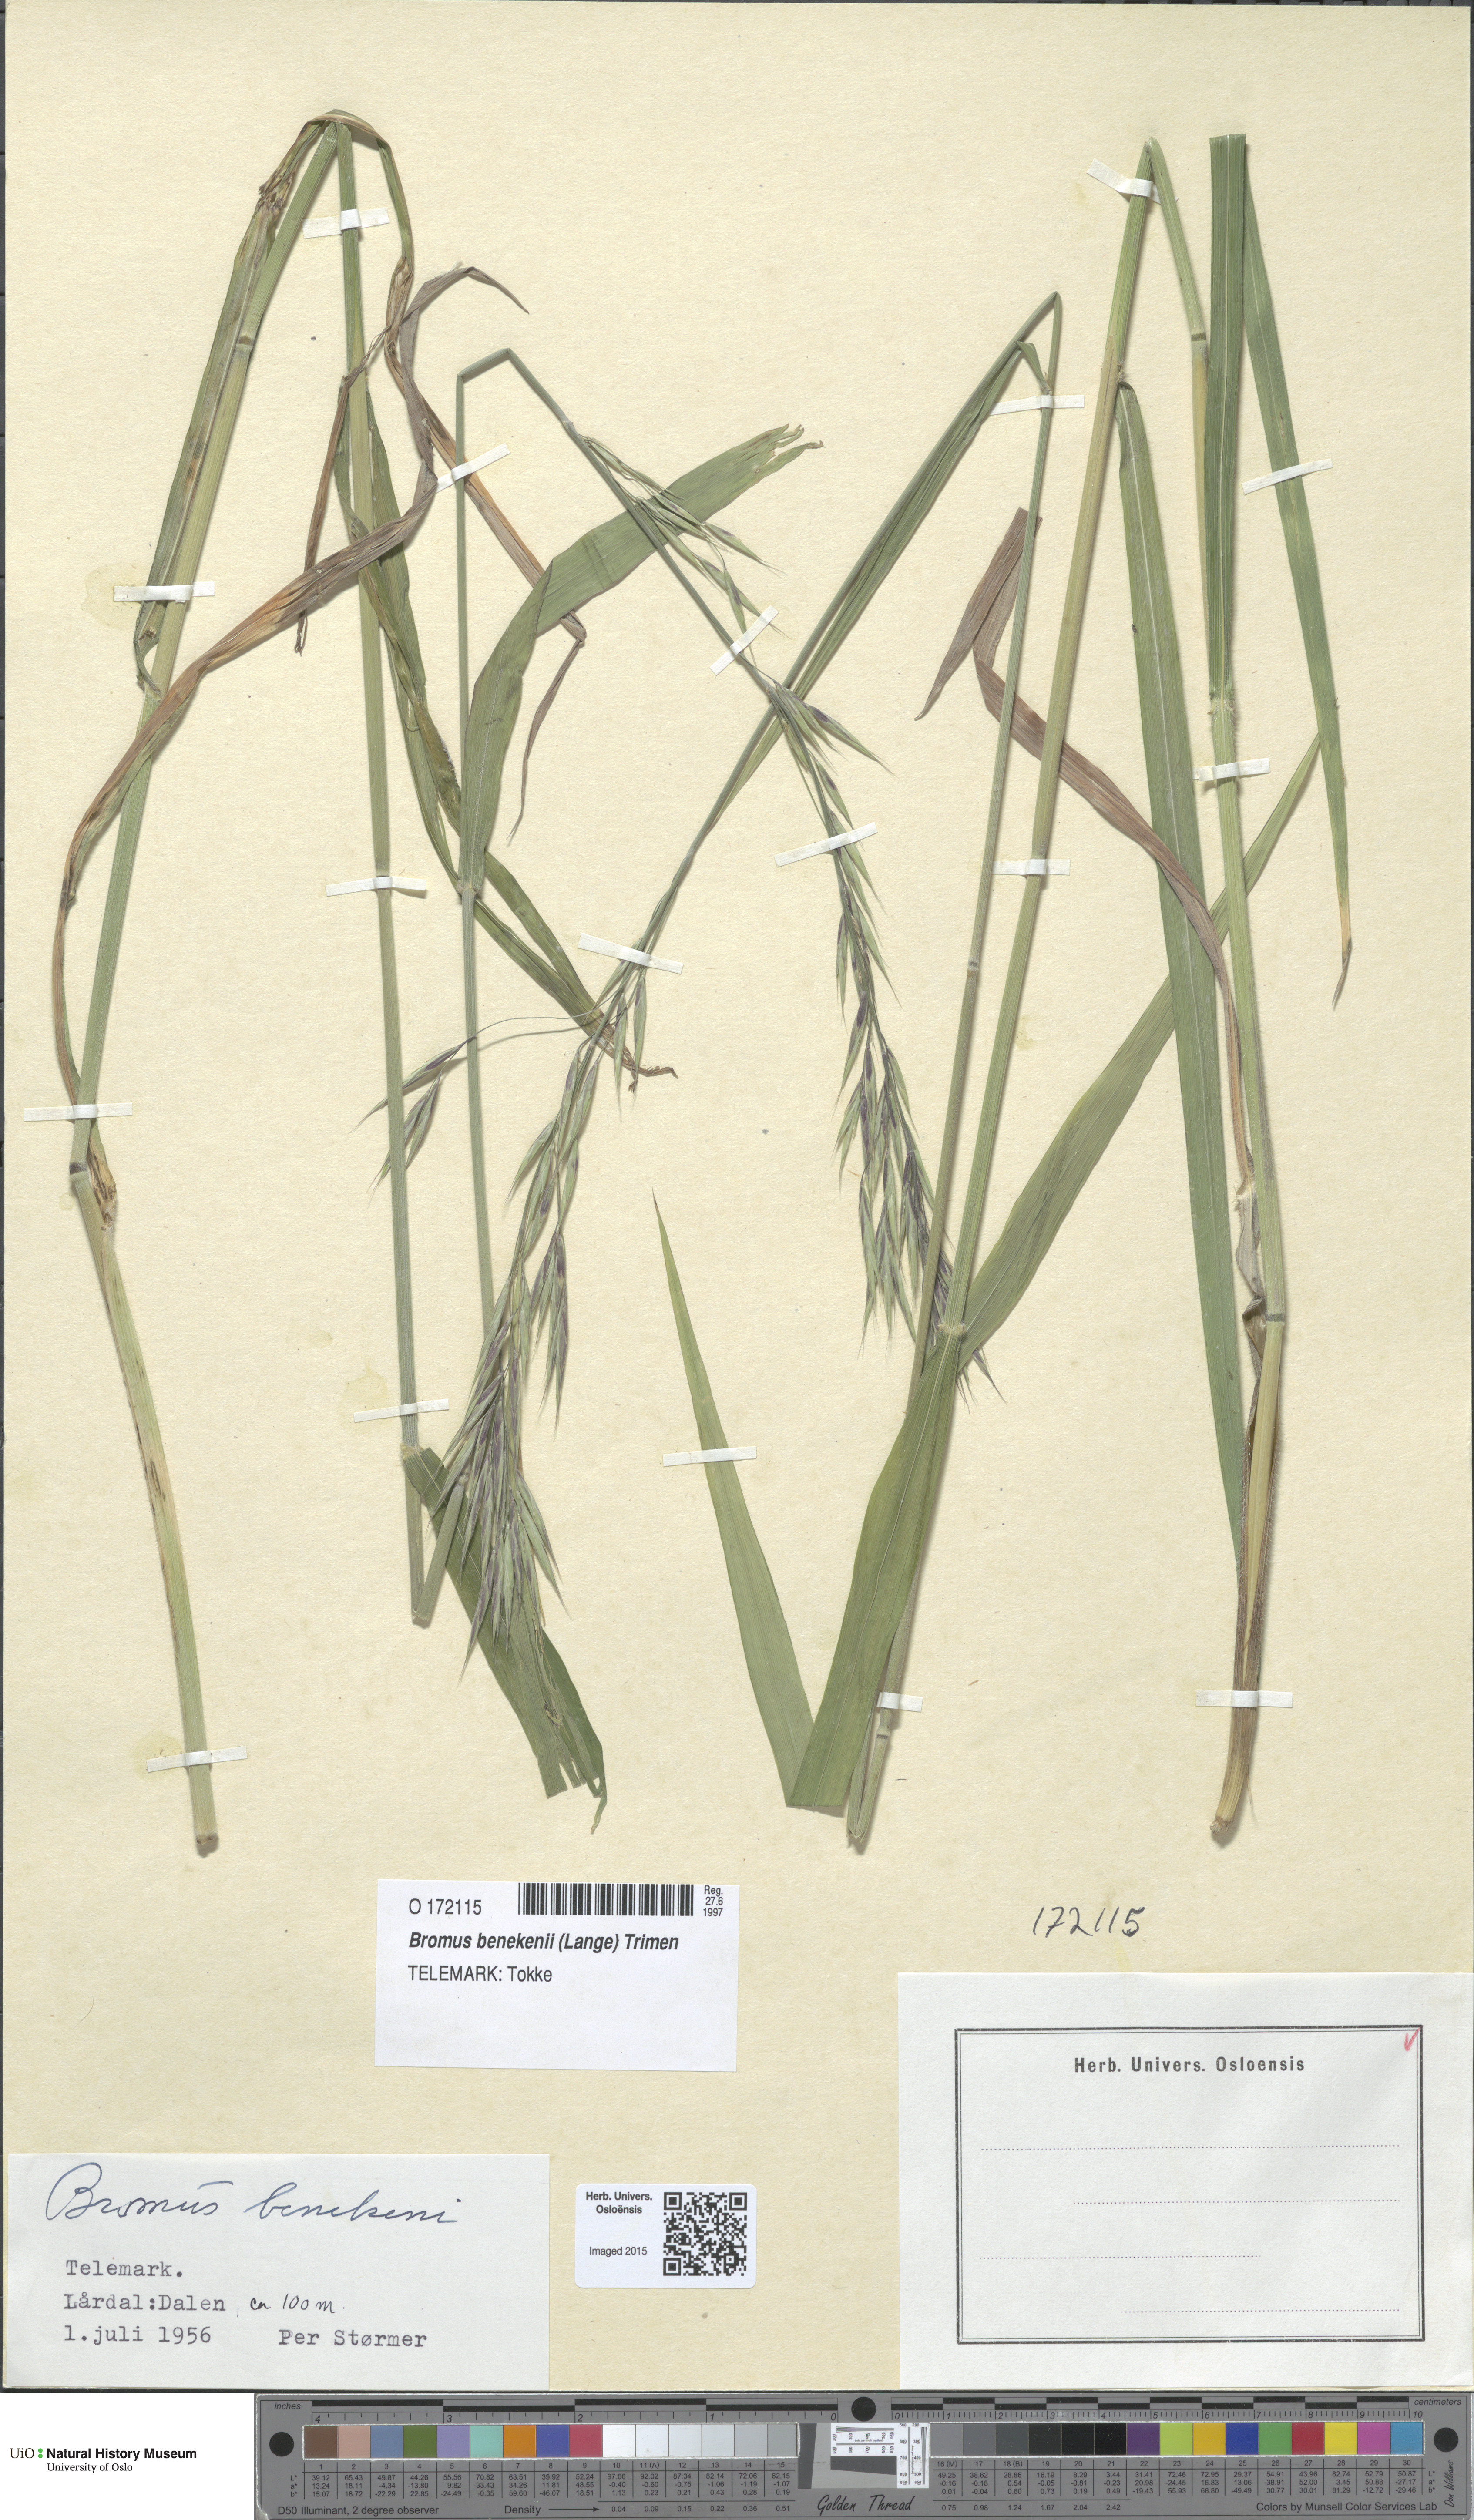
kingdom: Plantae
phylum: Tracheophyta
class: Liliopsida
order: Poales
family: Poaceae
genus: Bromus
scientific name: Bromus benekenii
